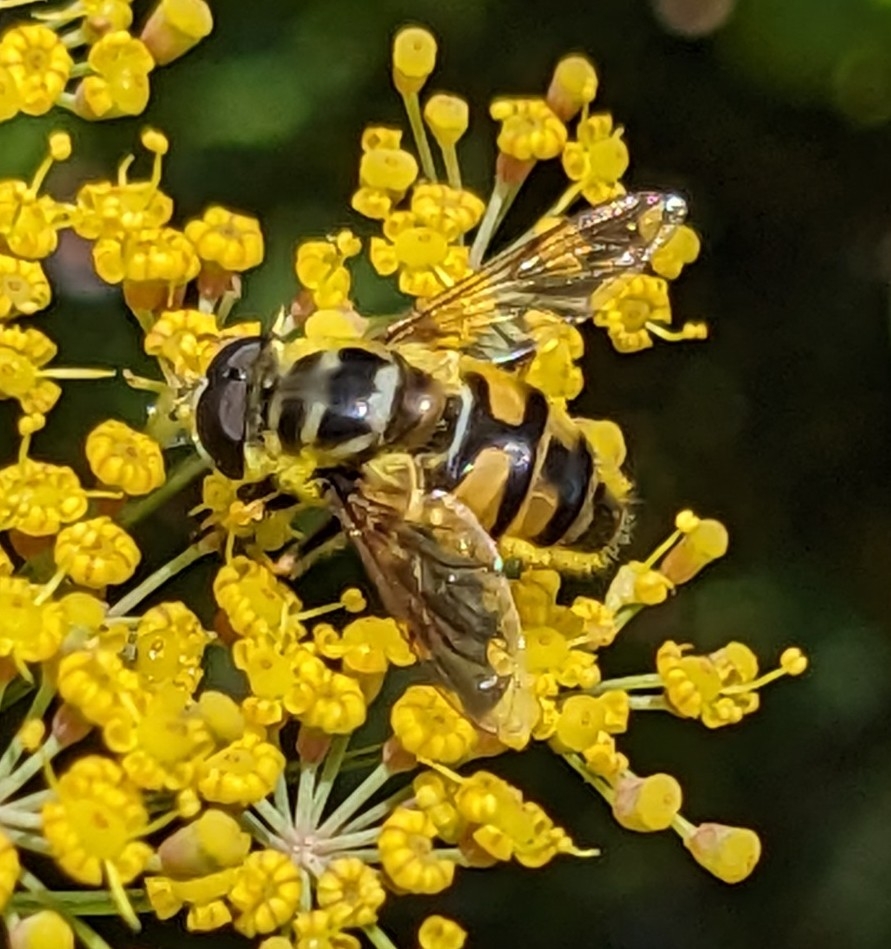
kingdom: Animalia
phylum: Arthropoda
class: Insecta
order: Diptera
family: Syrphidae
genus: Myathropa
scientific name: Myathropa florea
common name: Dødningehoved-svirreflue
